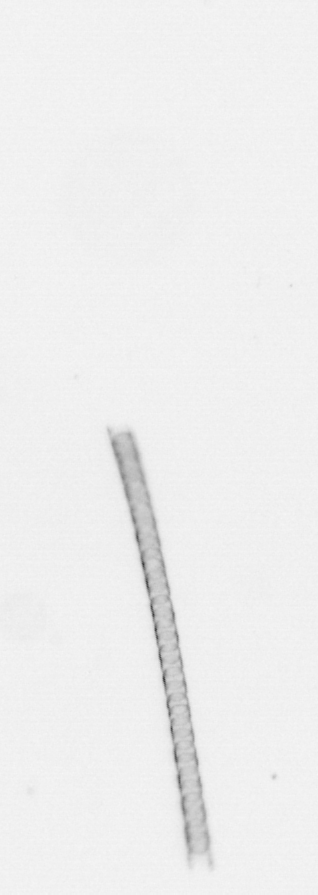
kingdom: Chromista
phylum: Ochrophyta
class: Bacillariophyceae
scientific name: Bacillariophyceae
